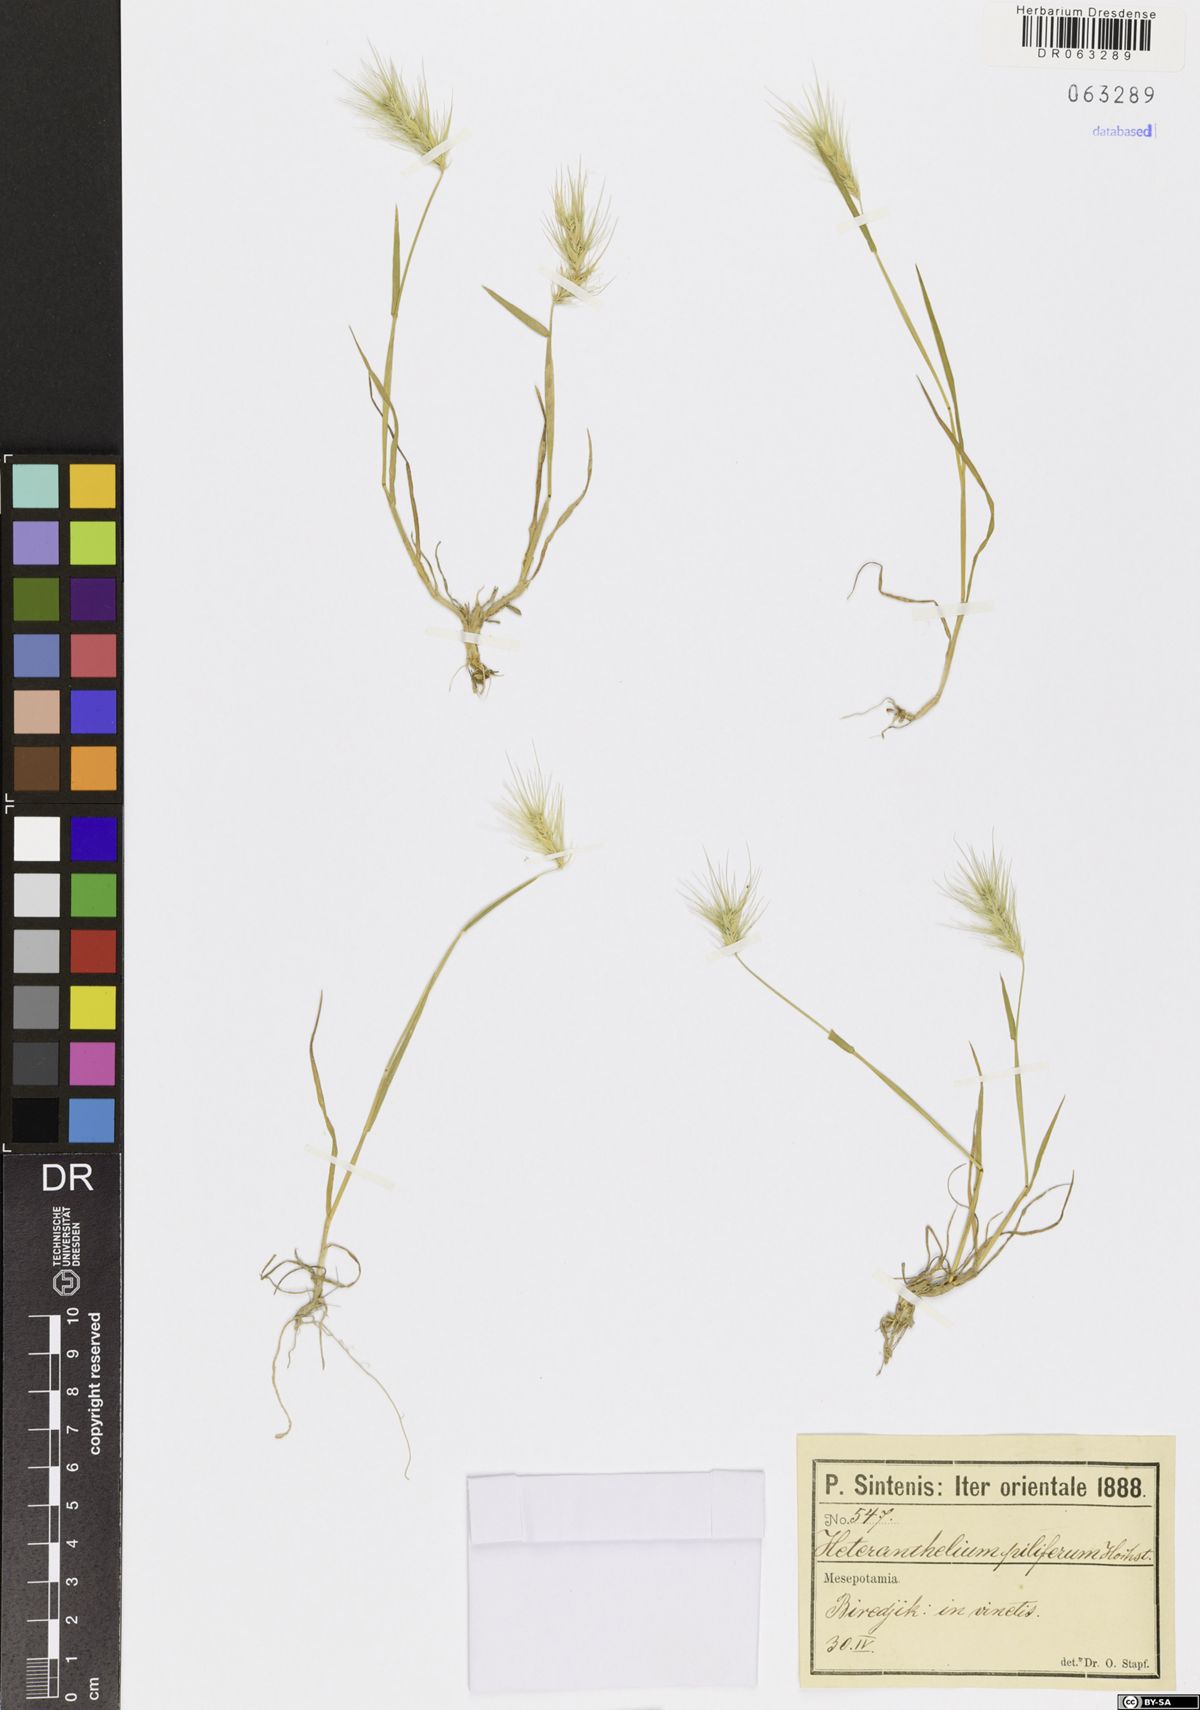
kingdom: Plantae
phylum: Tracheophyta
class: Liliopsida
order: Poales
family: Poaceae
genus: Heteranthelium
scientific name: Heteranthelium piliferum
